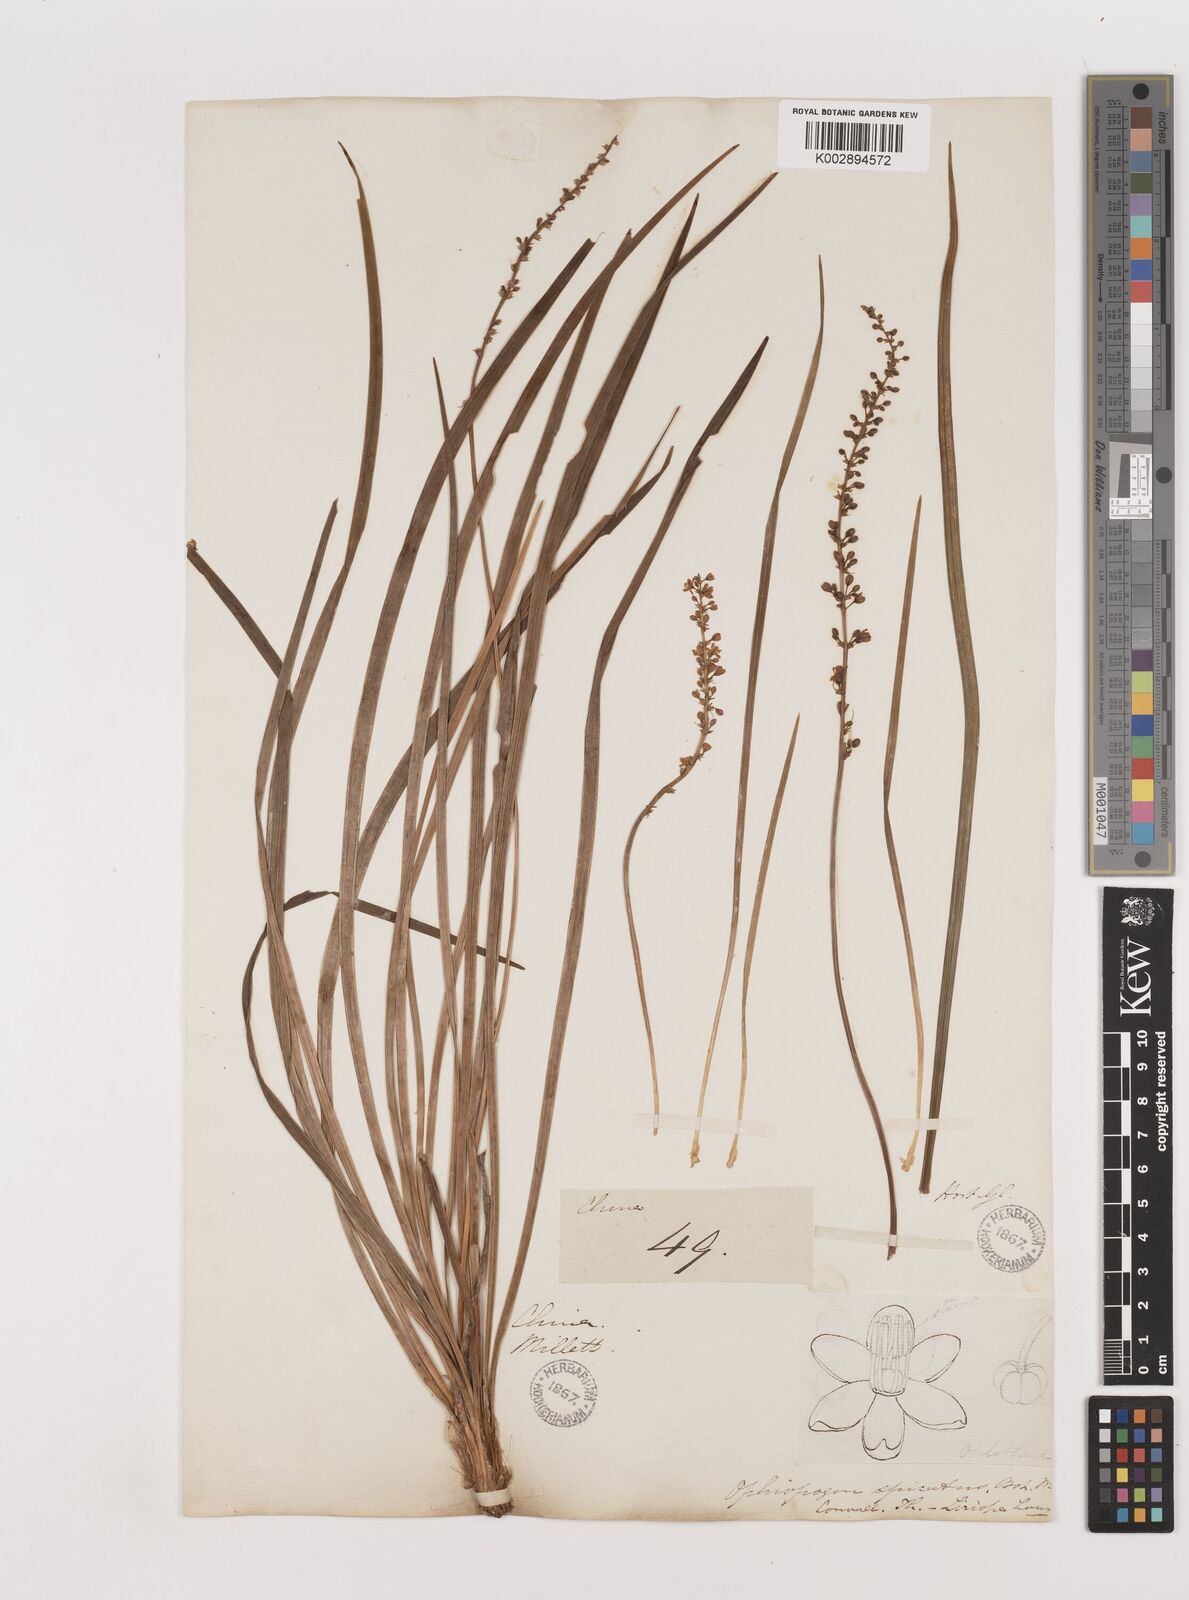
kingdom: Plantae
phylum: Tracheophyta
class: Liliopsida
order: Asparagales
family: Asparagaceae
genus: Liriope
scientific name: Liriope spicata
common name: Creeping liriope
